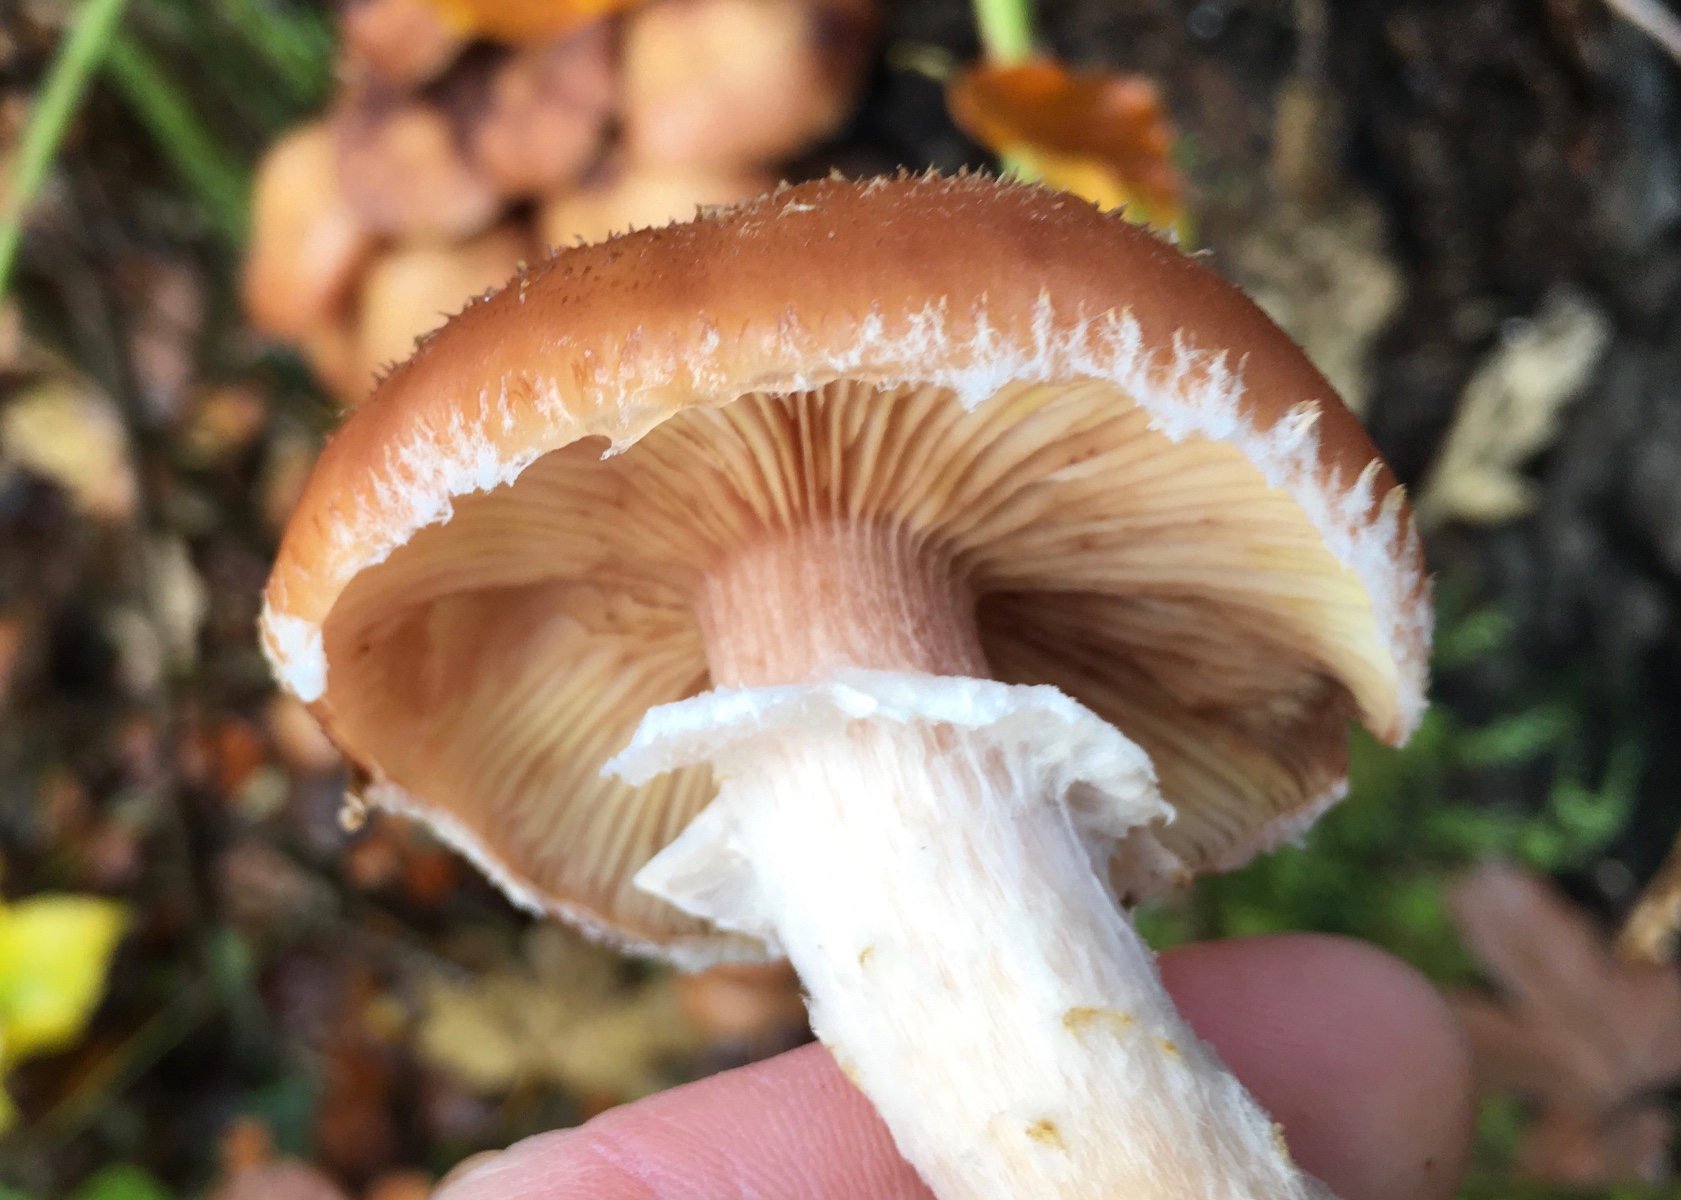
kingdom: Fungi
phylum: Basidiomycota
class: Agaricomycetes
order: Agaricales
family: Physalacriaceae
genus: Armillaria
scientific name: Armillaria lutea
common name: køllestokket honningsvamp
